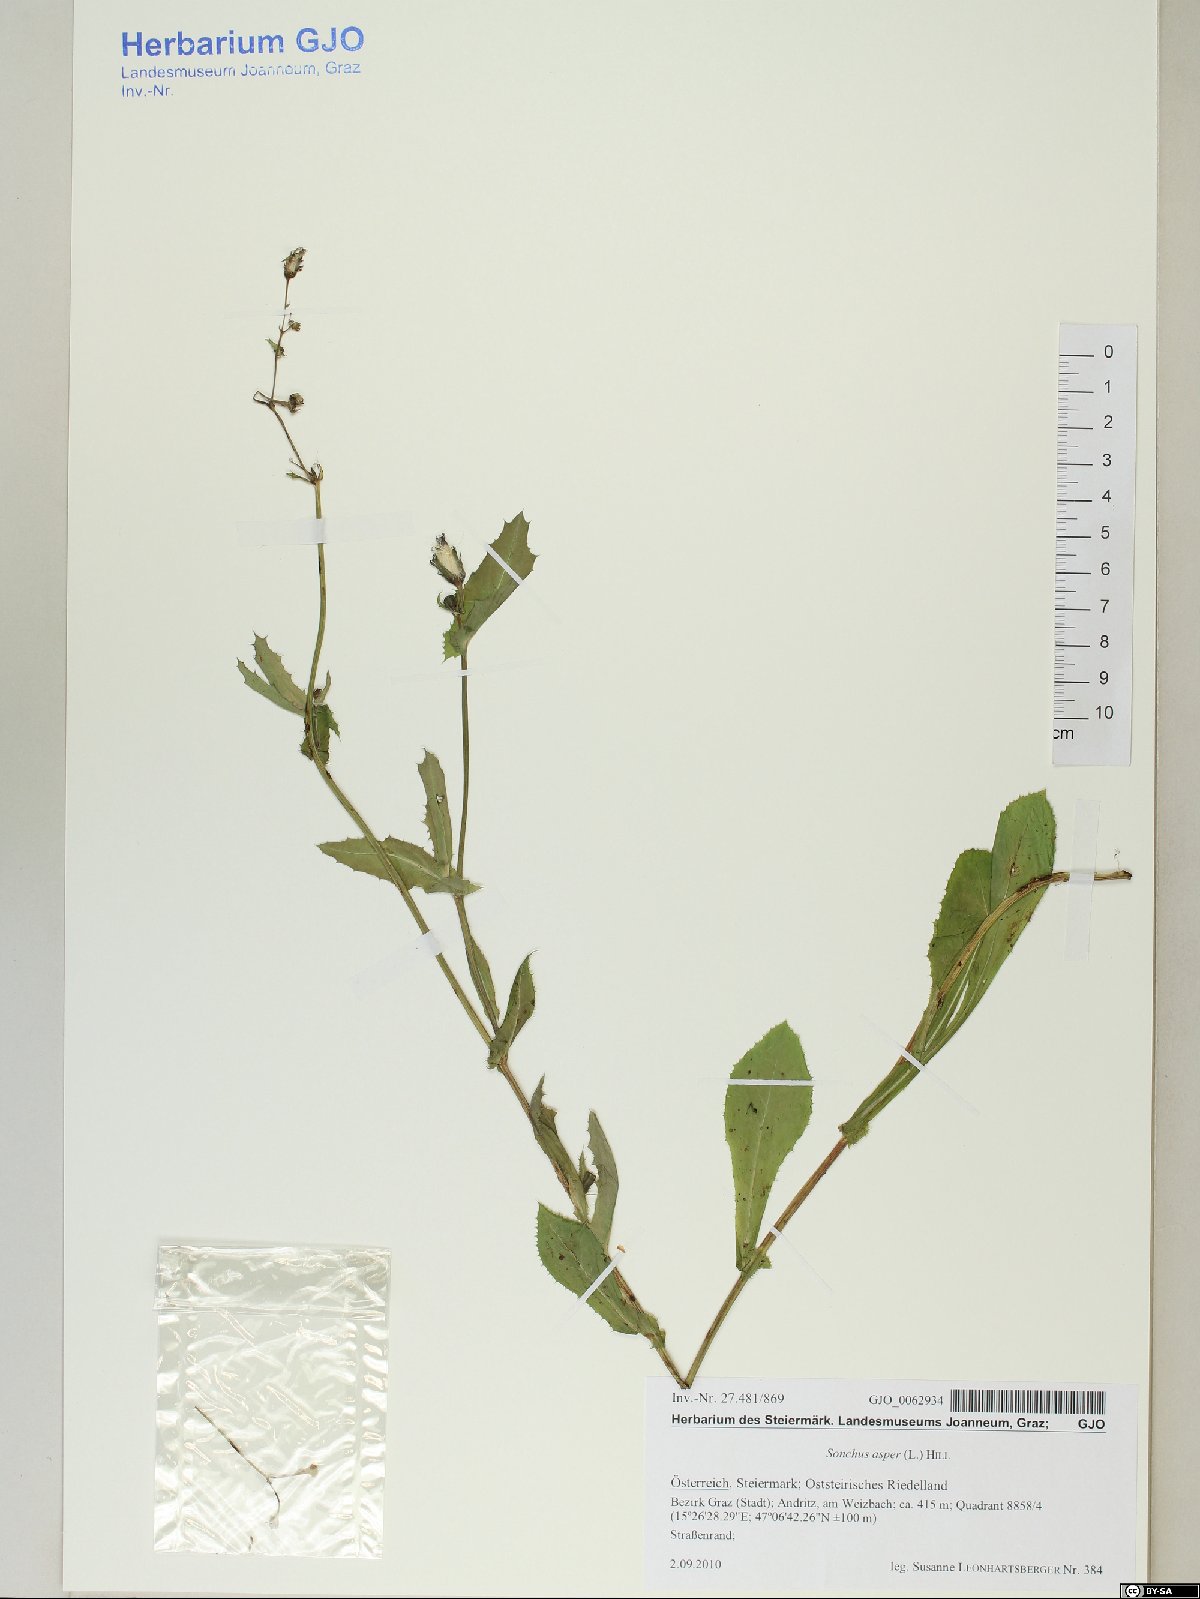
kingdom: Plantae
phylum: Tracheophyta
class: Magnoliopsida
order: Asterales
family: Asteraceae
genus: Sonchus
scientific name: Sonchus asper
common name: Prickly sow-thistle
